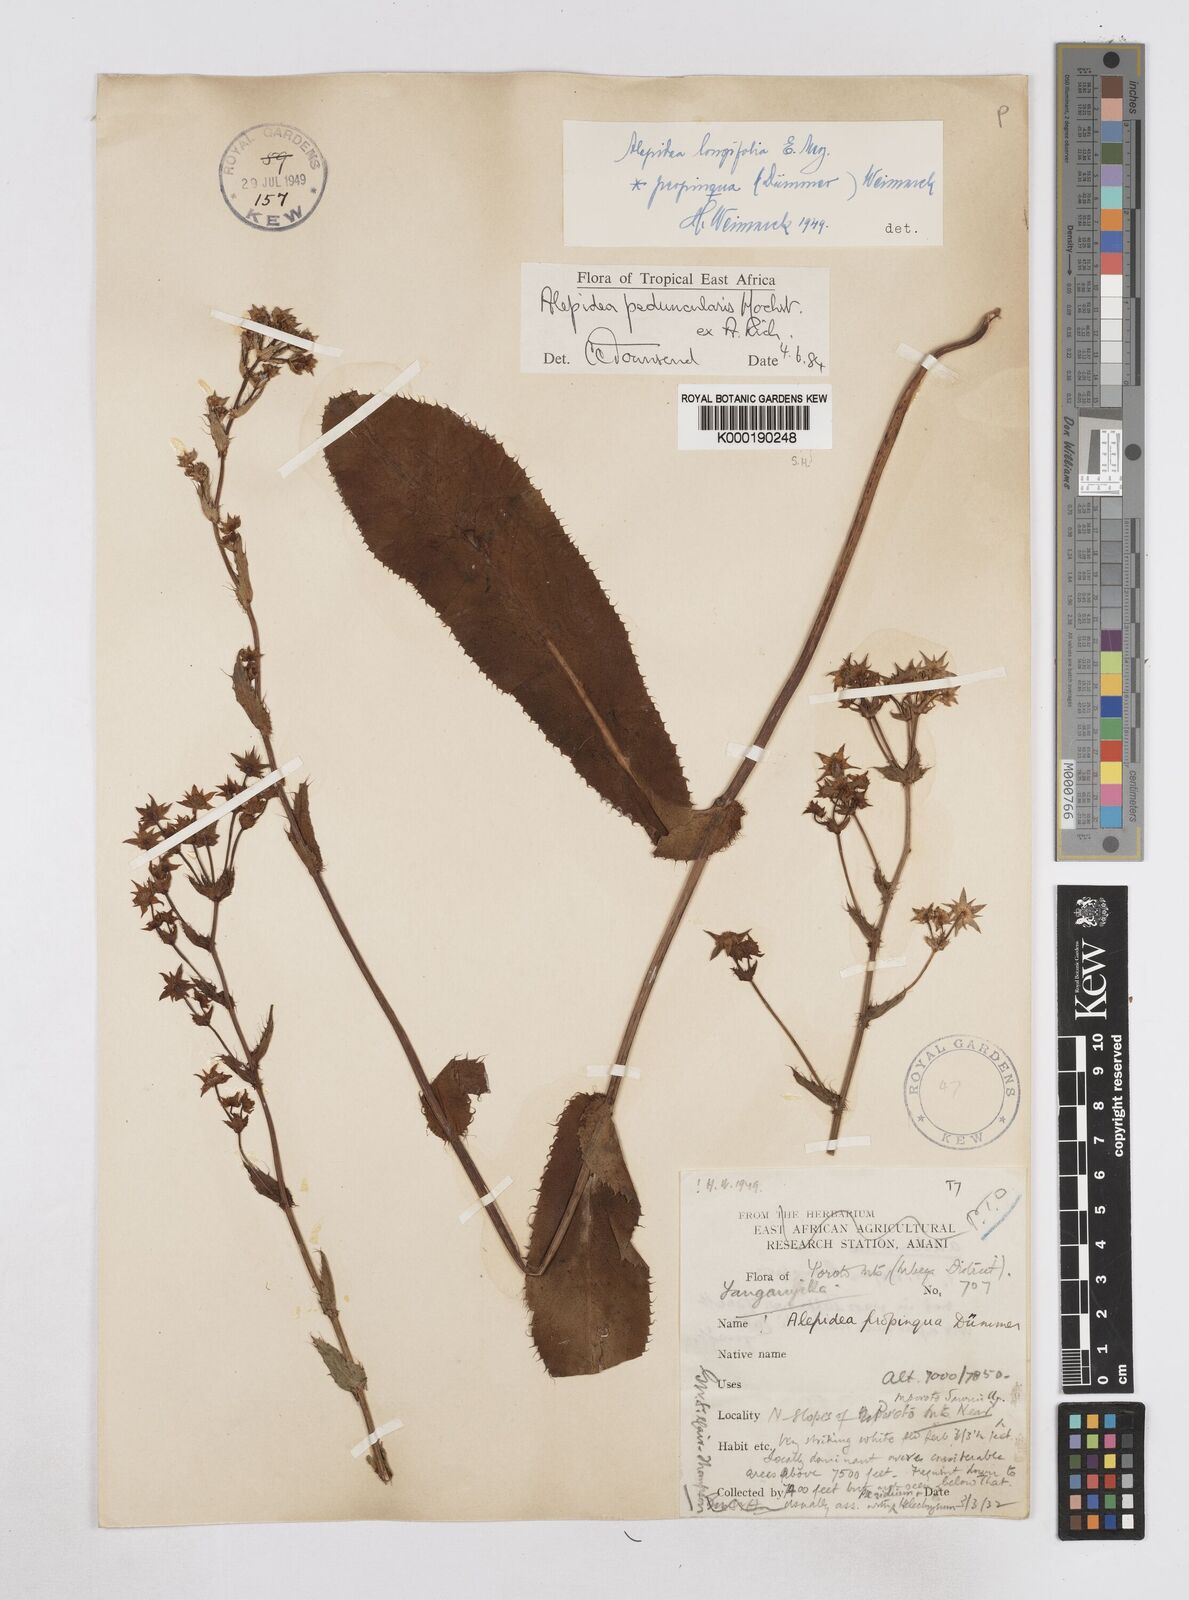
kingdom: Plantae
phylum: Tracheophyta
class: Magnoliopsida
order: Apiales
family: Apiaceae
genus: Alepidea
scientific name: Alepidea peduncularis
